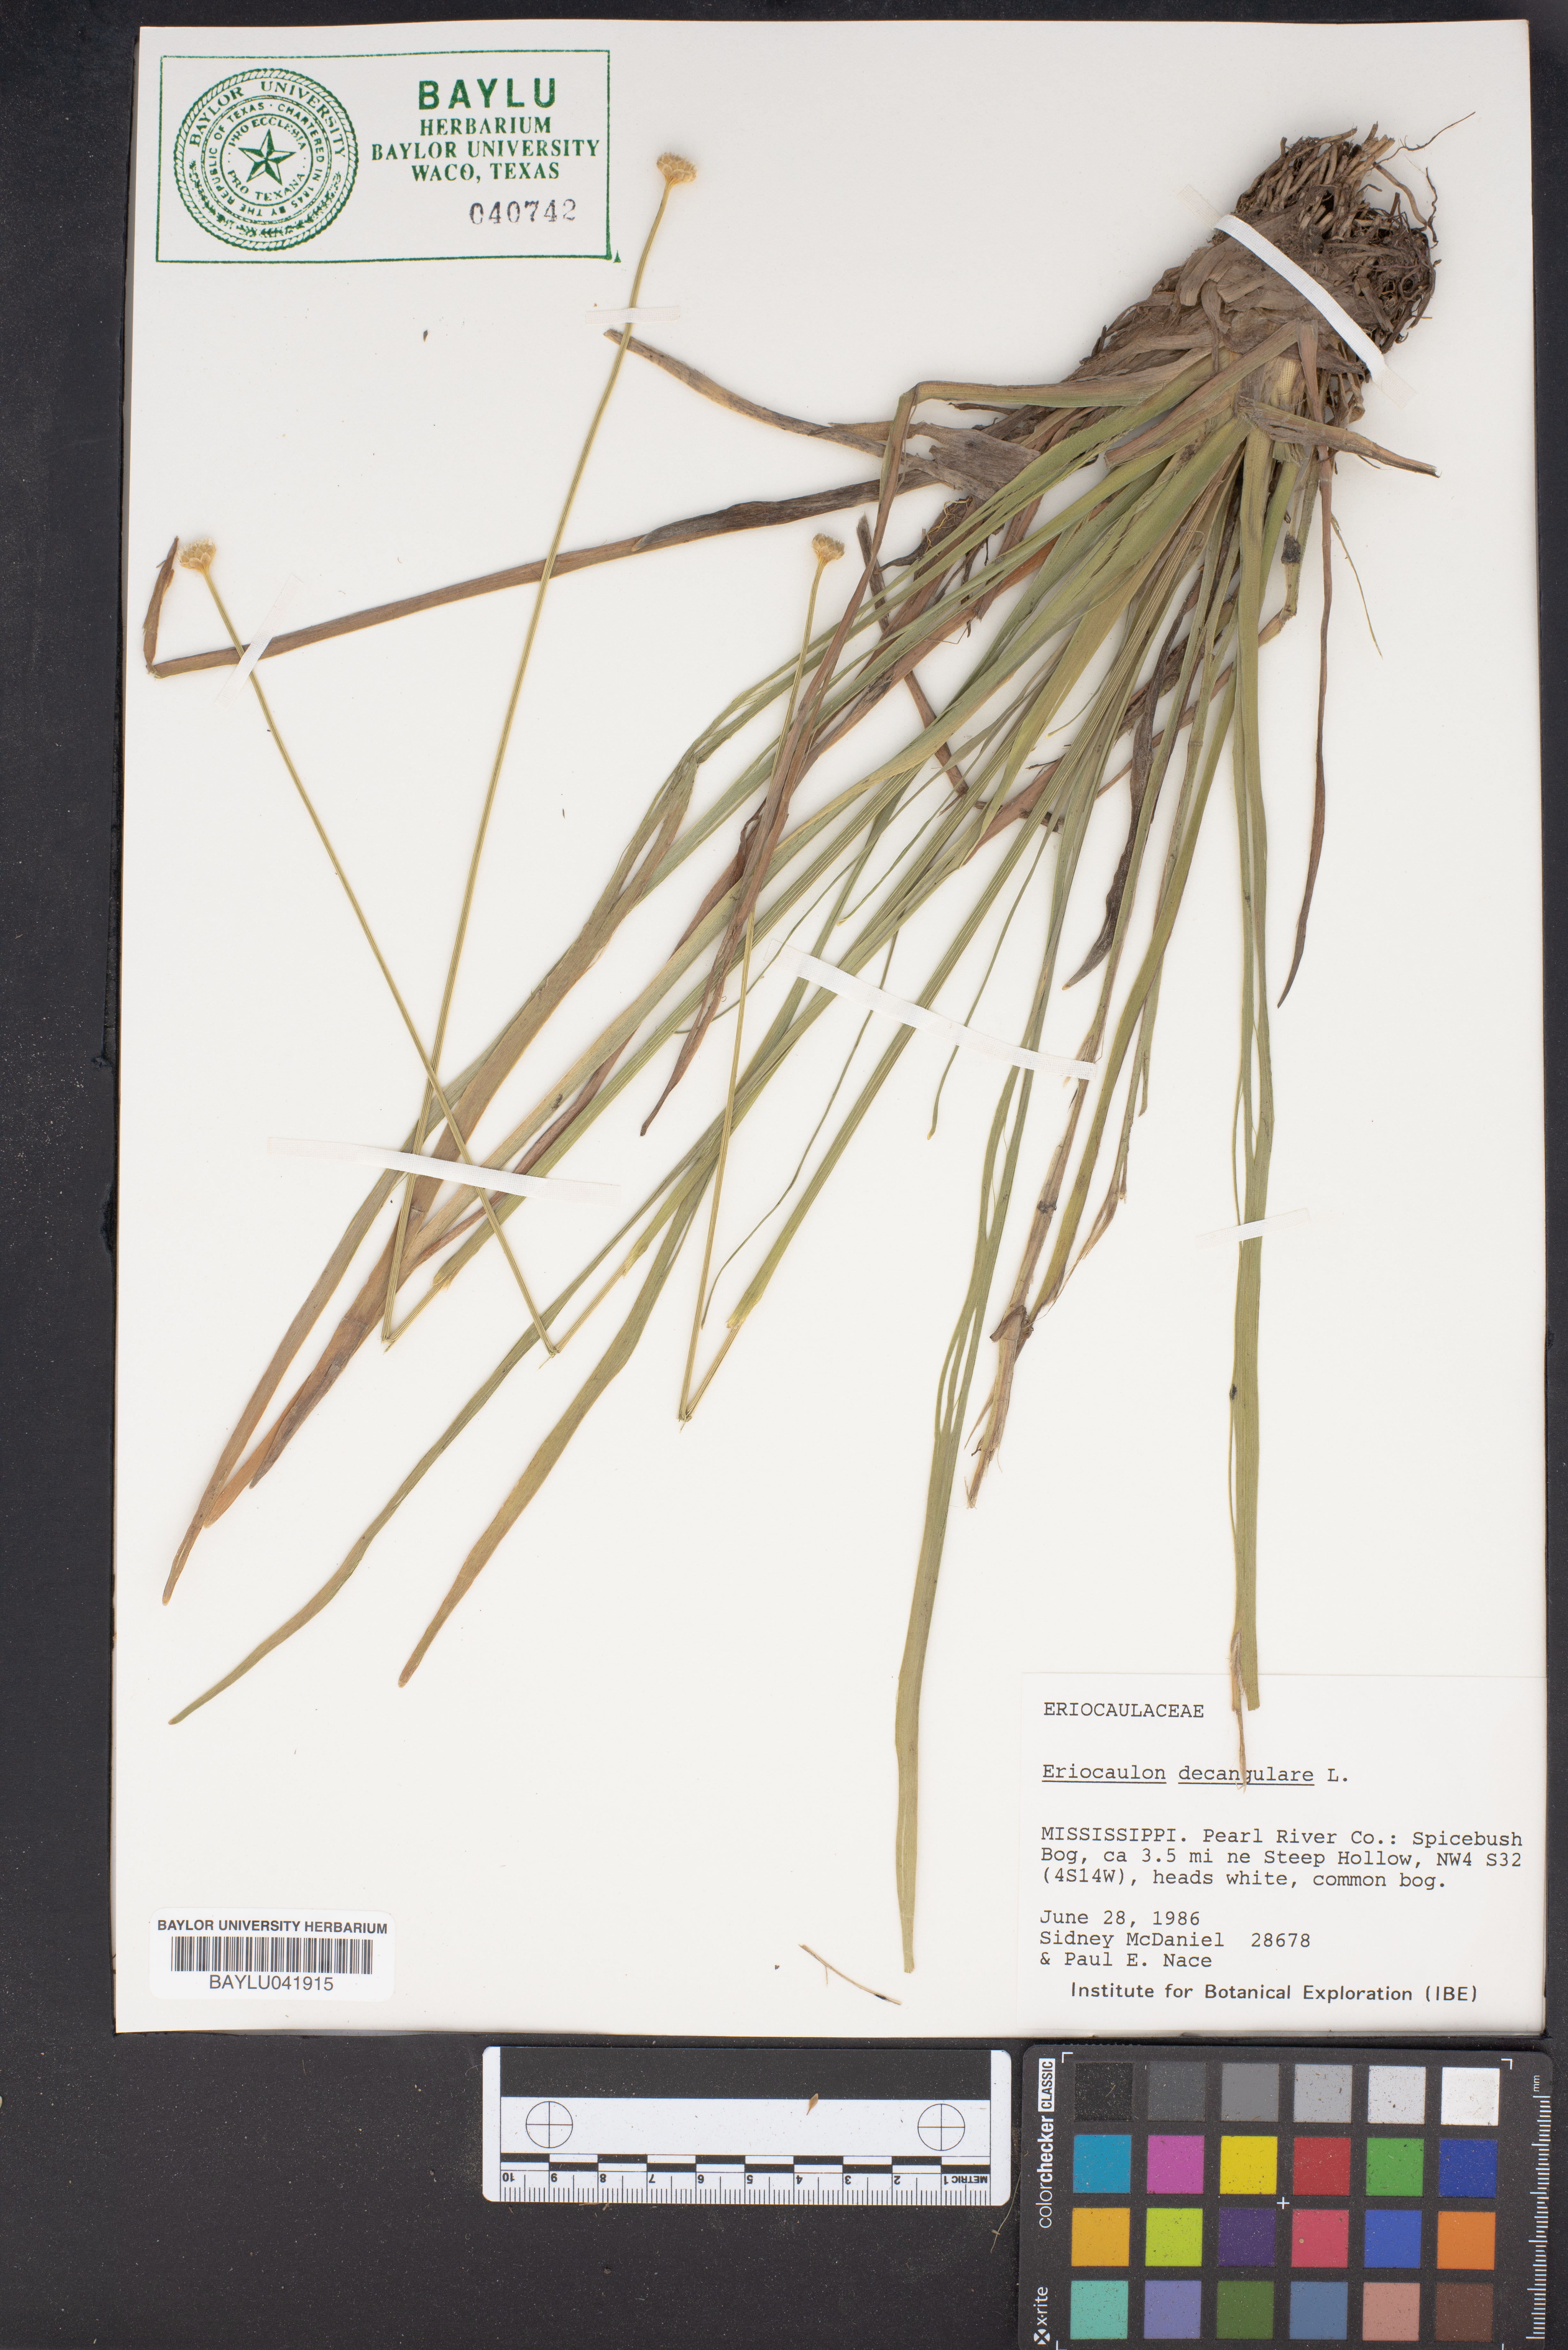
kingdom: Plantae
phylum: Tracheophyta
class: Liliopsida
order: Poales
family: Eriocaulaceae
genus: Eriocaulon
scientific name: Eriocaulon decangulare
